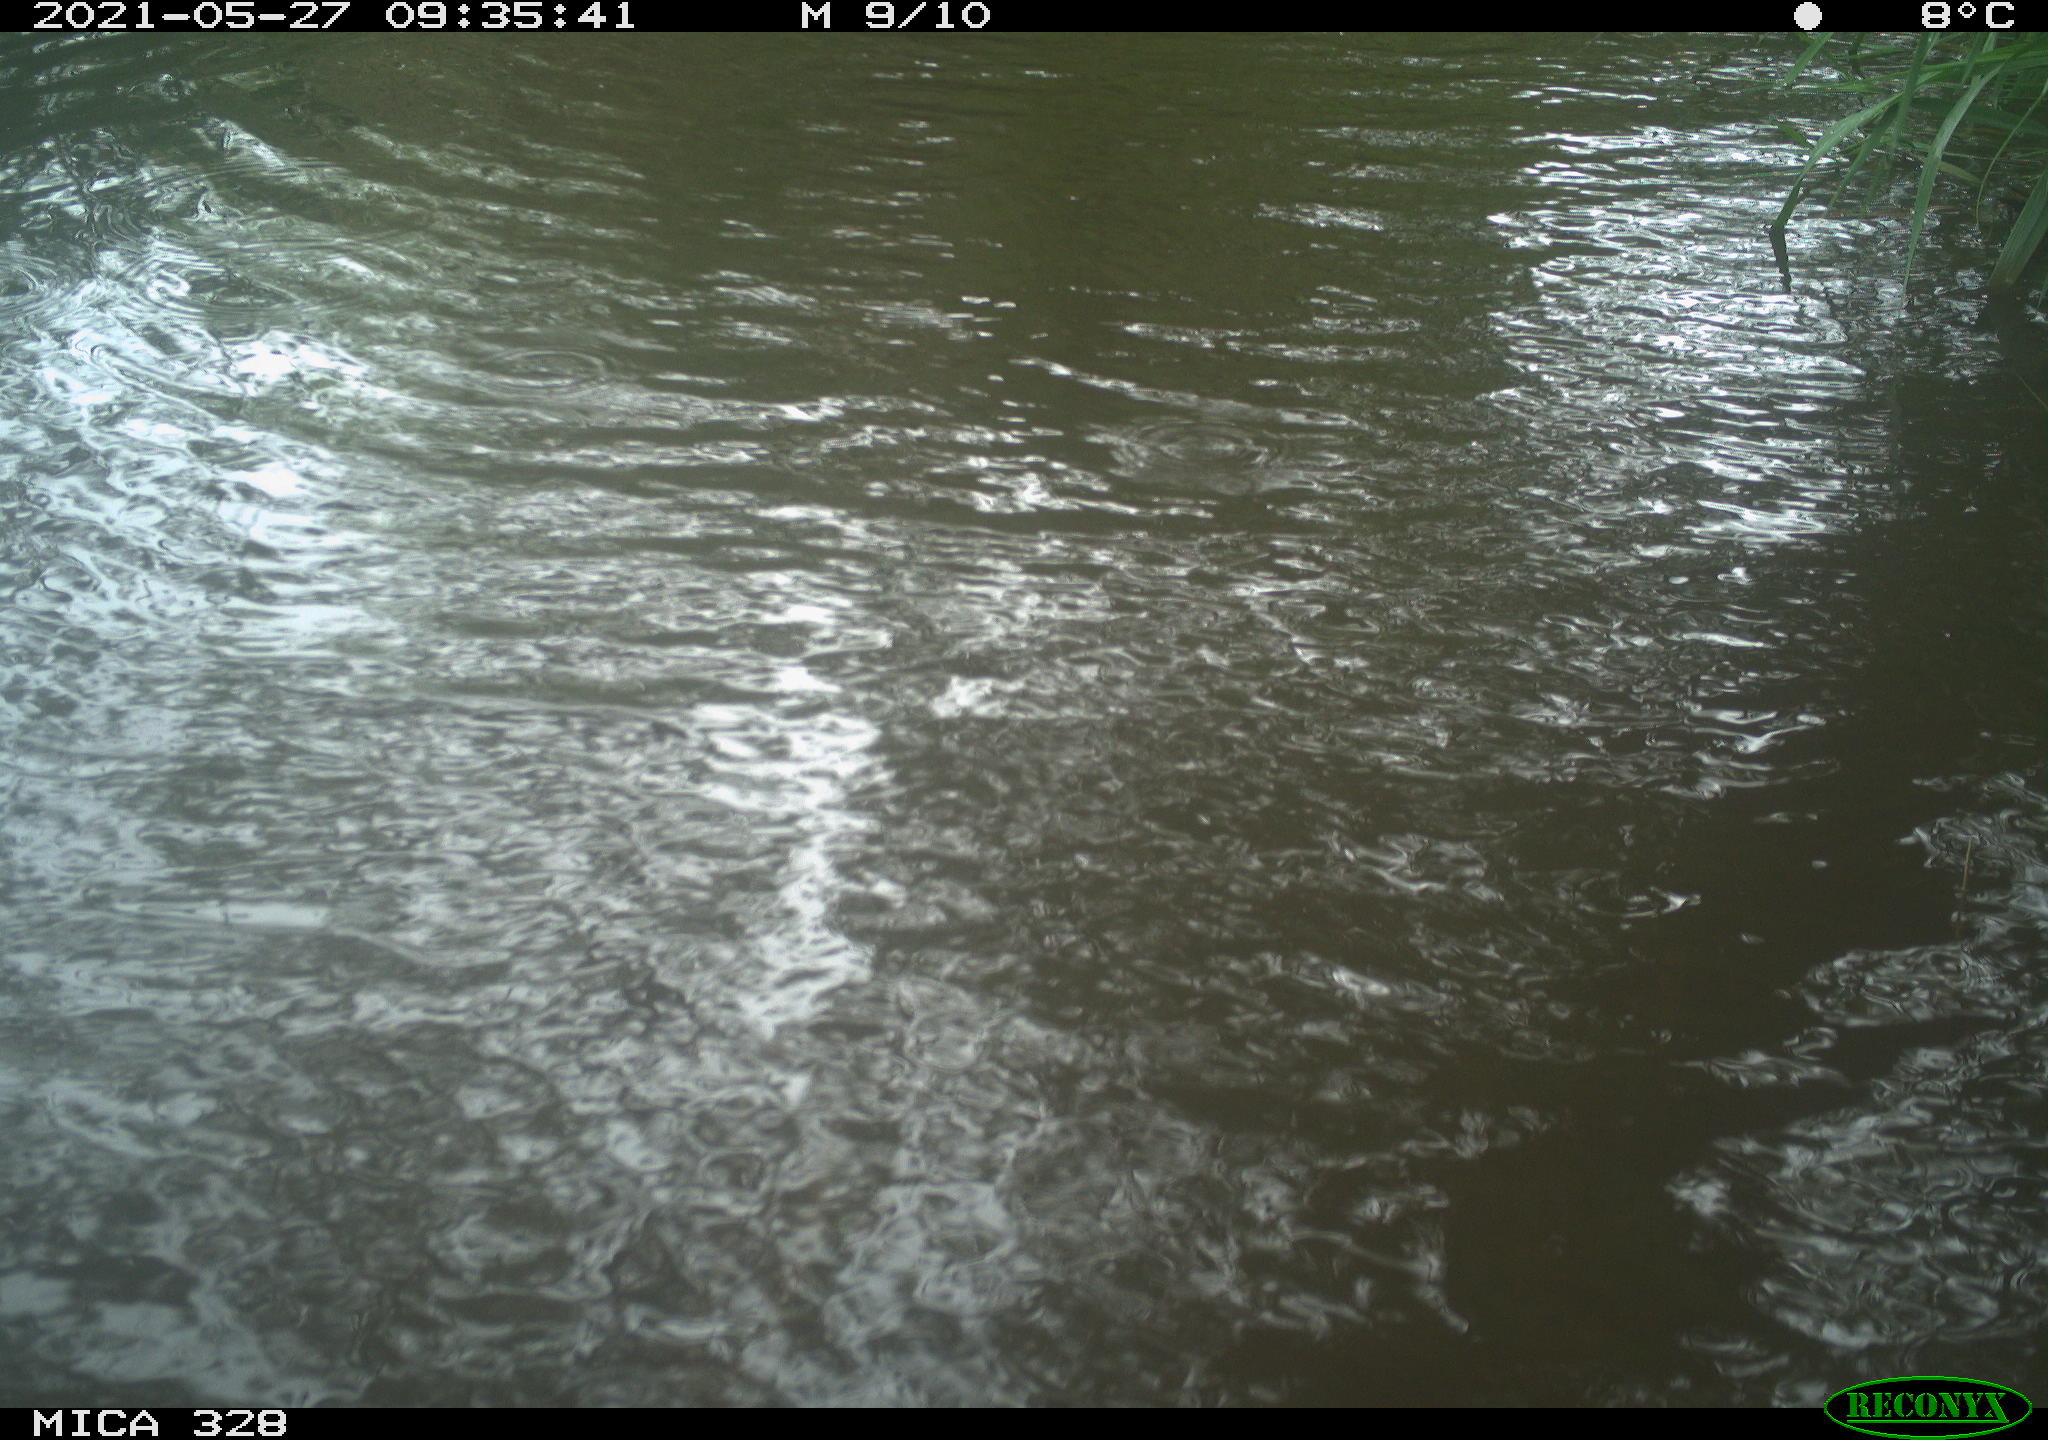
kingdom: Animalia
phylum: Chordata
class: Mammalia
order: Rodentia
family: Cricetidae
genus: Ondatra
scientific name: Ondatra zibethicus
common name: Muskrat
